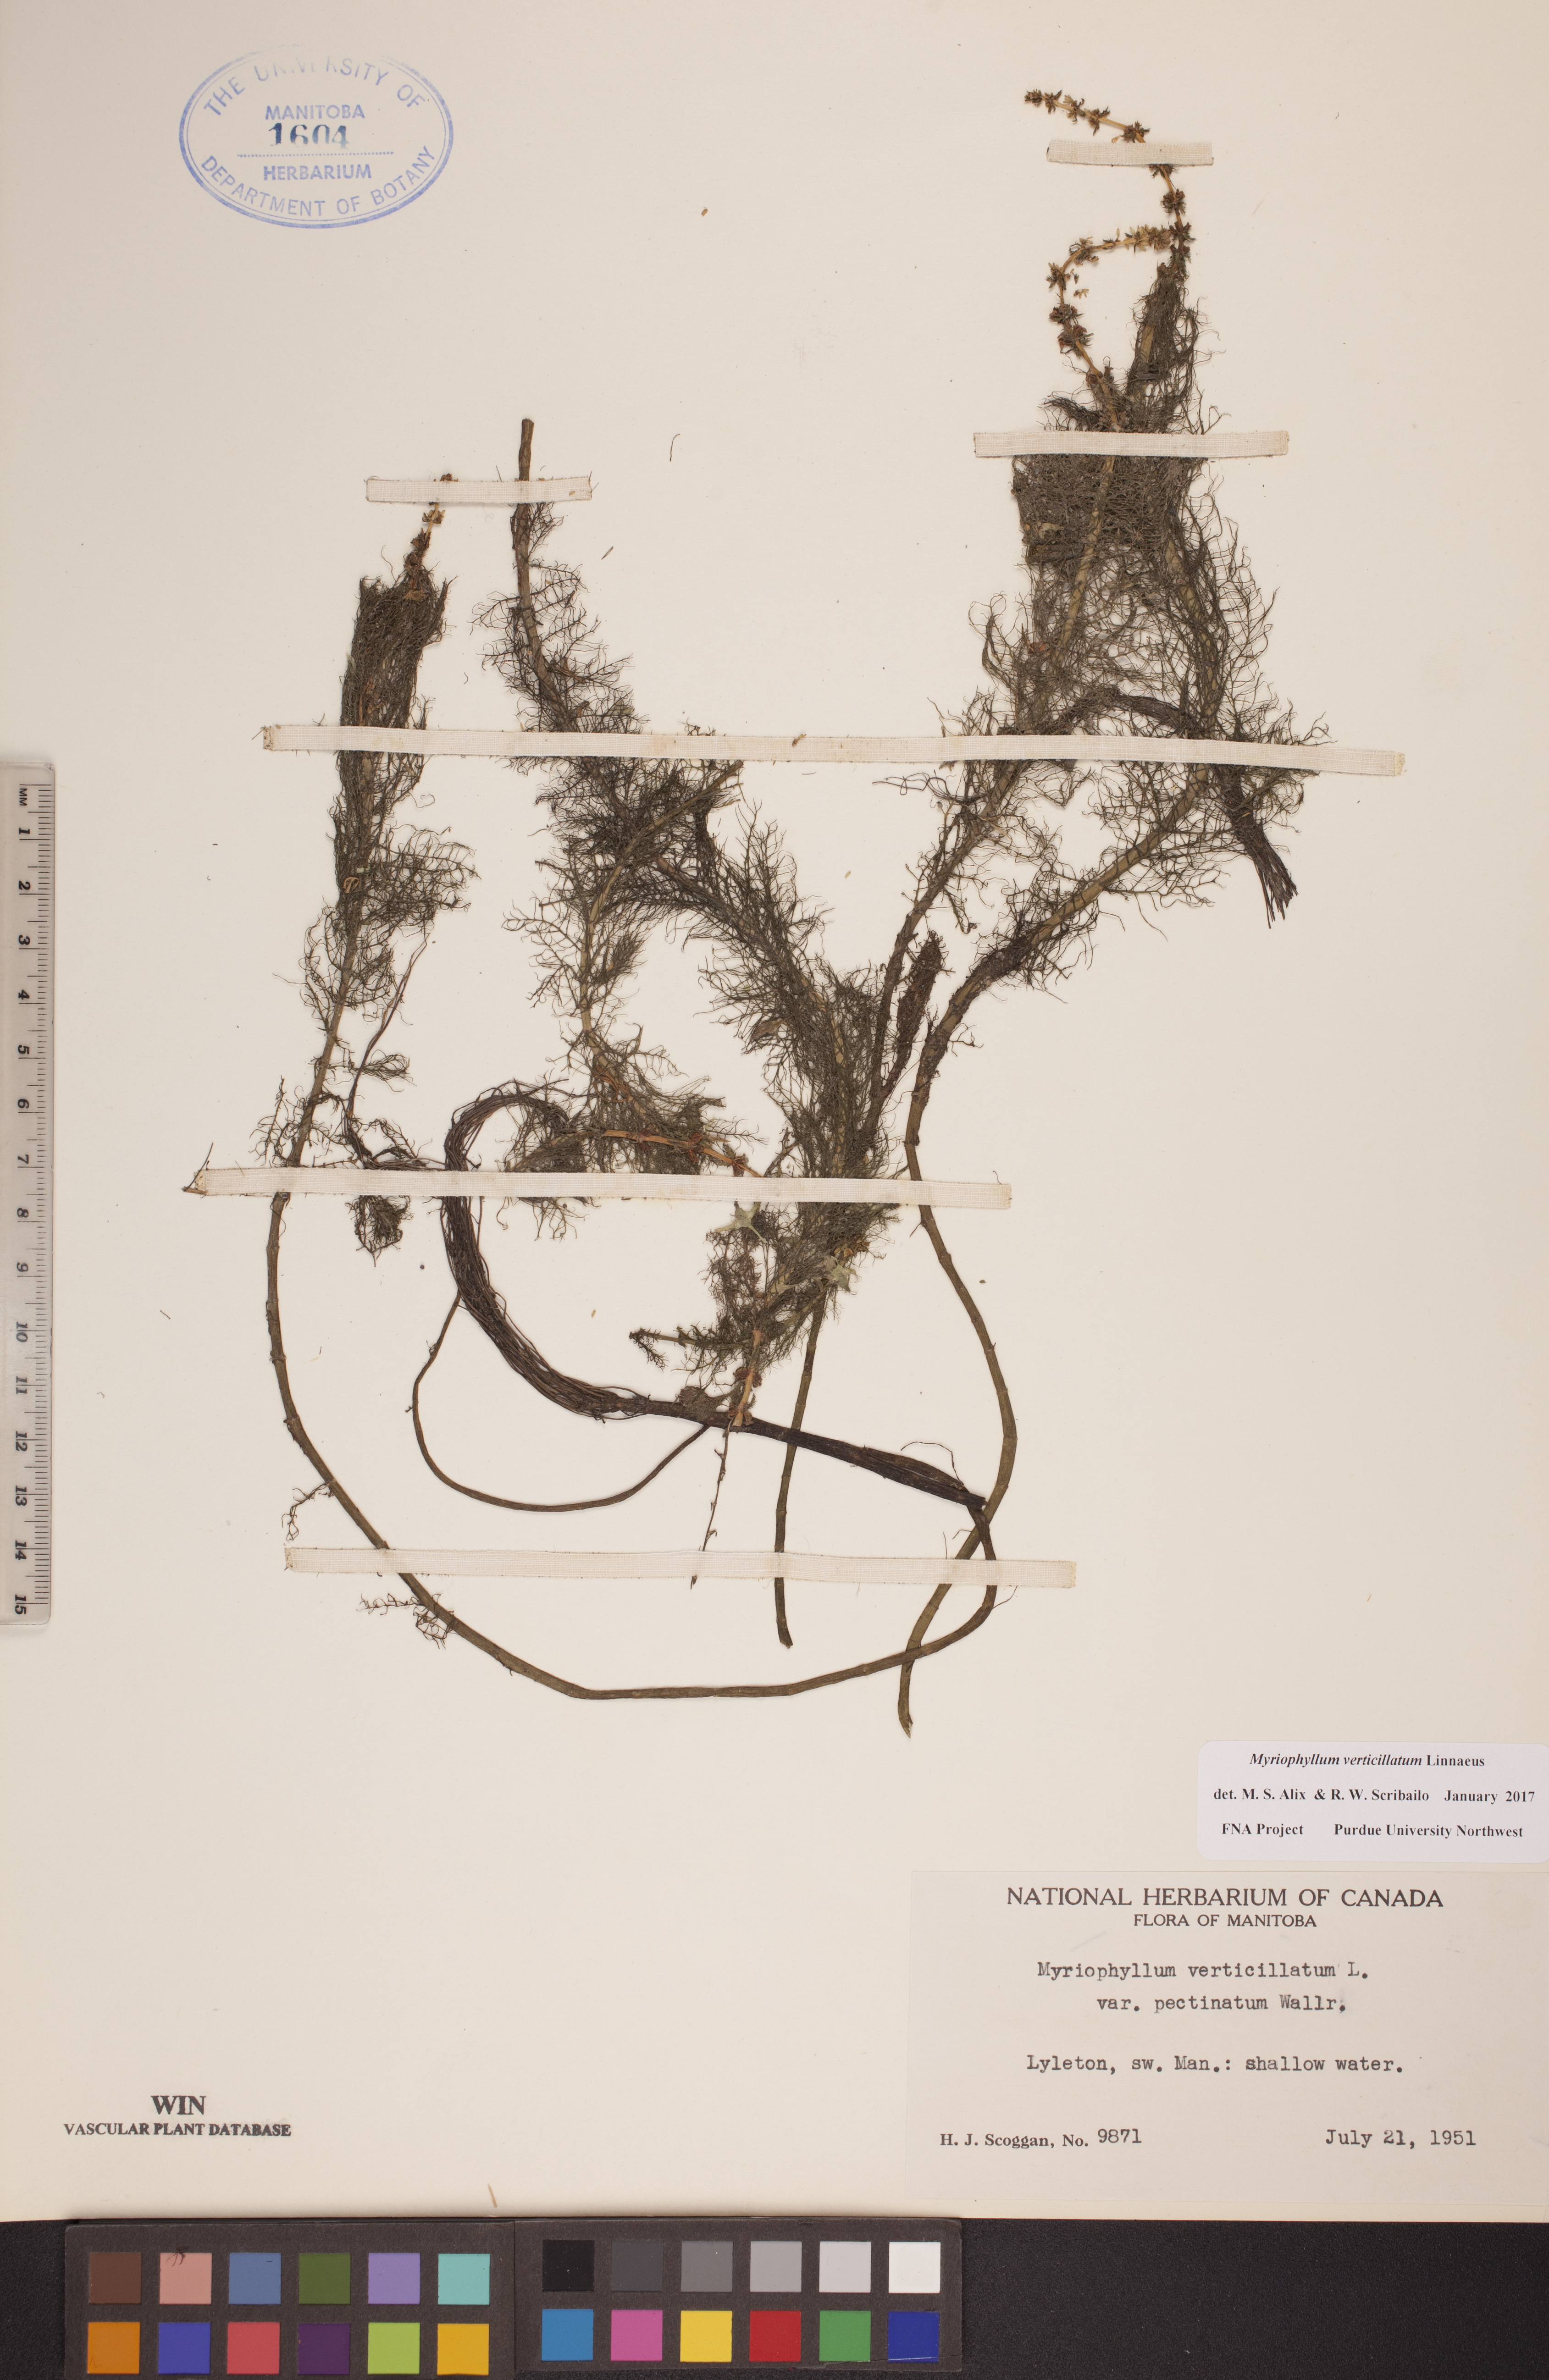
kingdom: Plantae
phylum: Tracheophyta
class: Magnoliopsida
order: Saxifragales
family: Haloragaceae
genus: Myriophyllum
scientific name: Myriophyllum verticillatum
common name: Whorled water-milfoil
